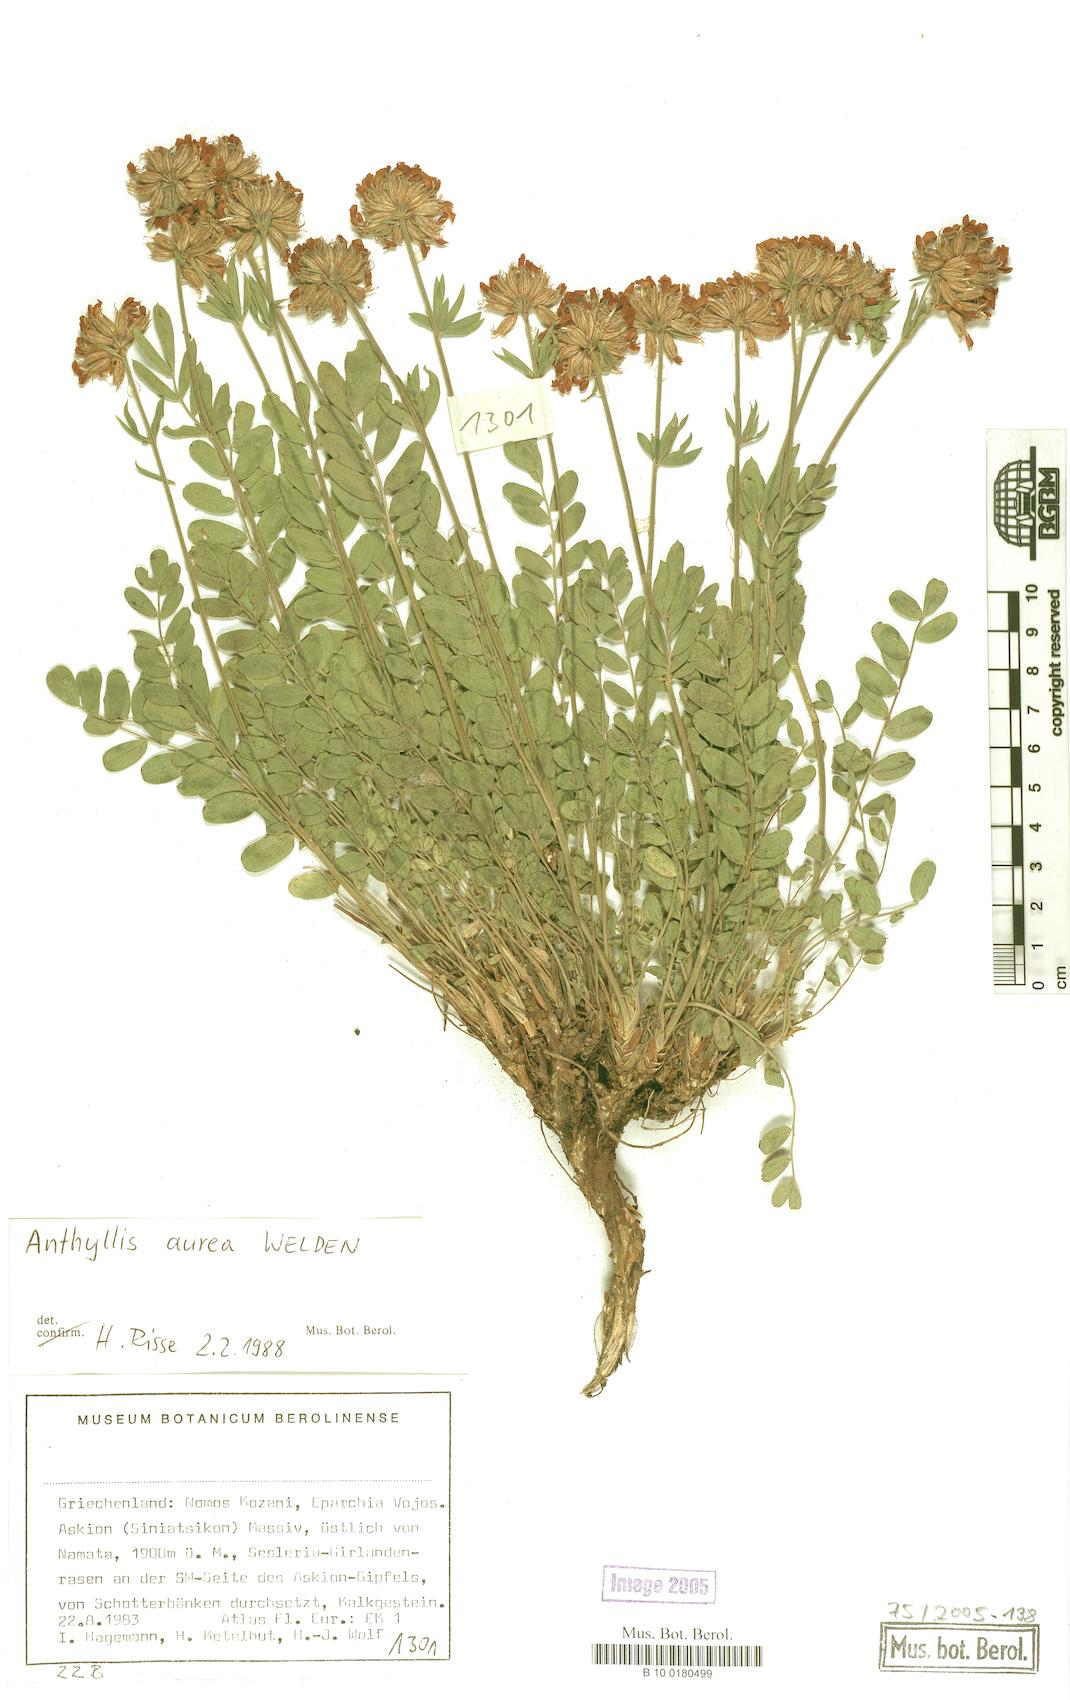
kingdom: Plantae
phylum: Tracheophyta
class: Magnoliopsida
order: Fabales
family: Fabaceae
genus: Anthyllis
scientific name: Anthyllis aurea
